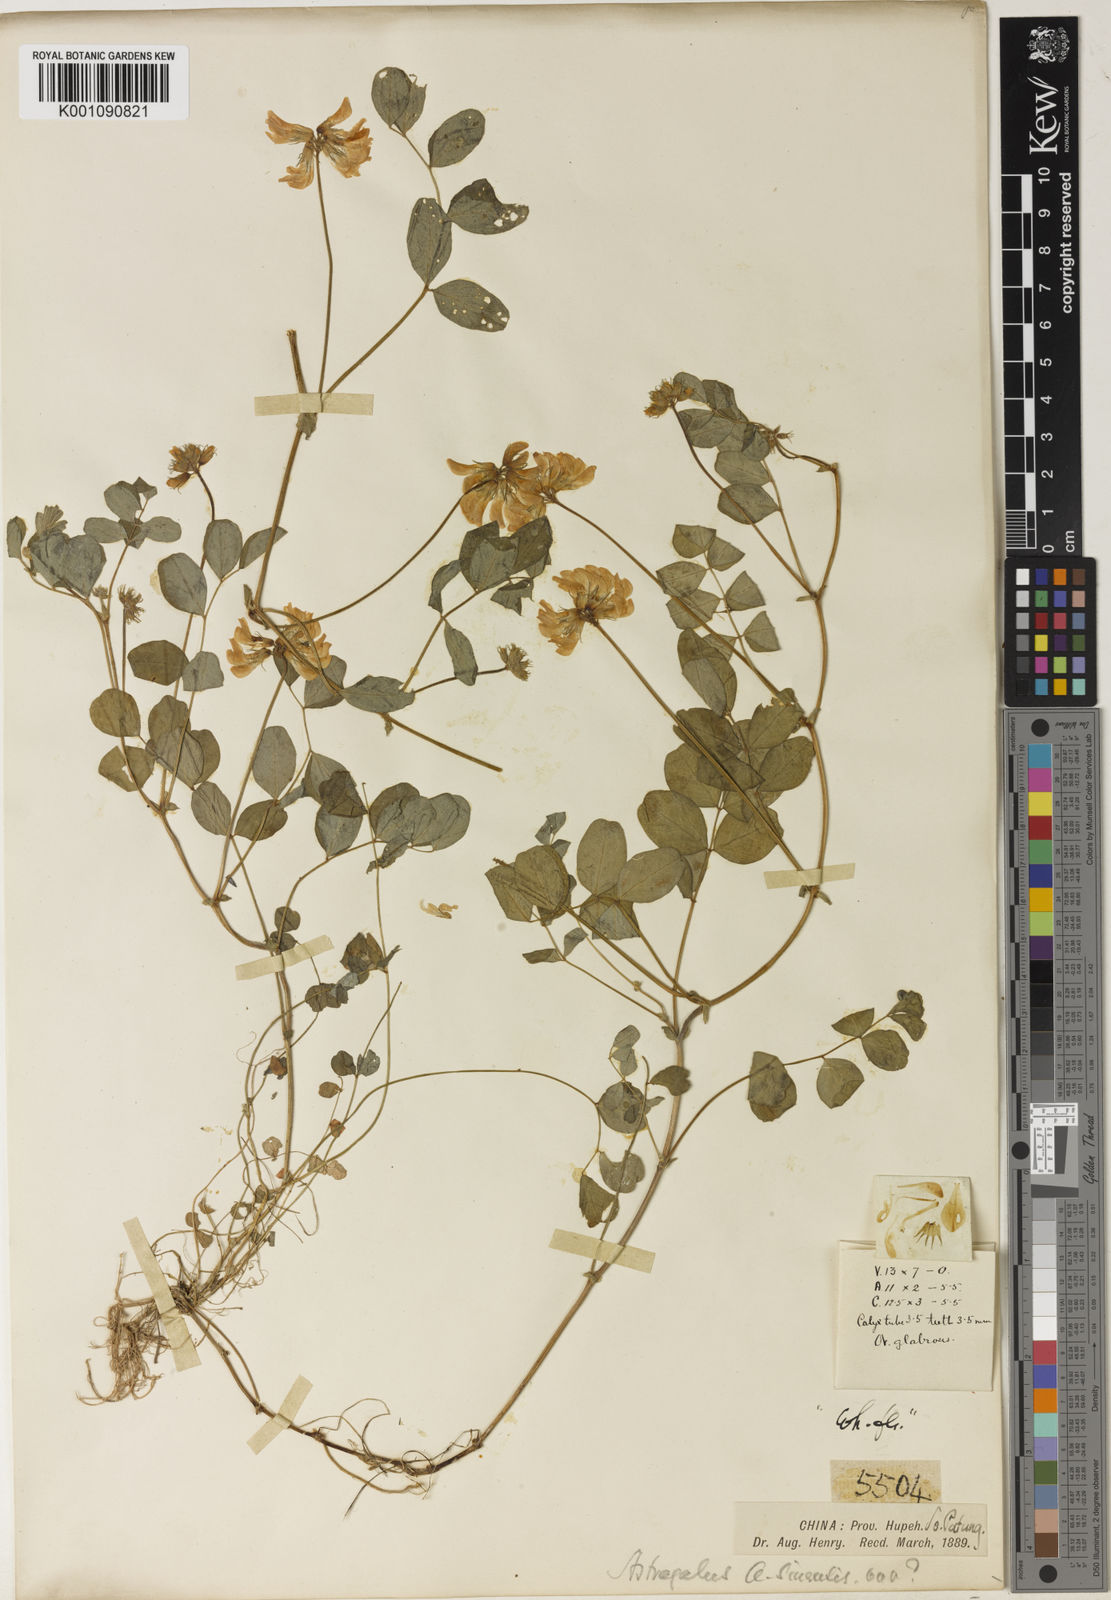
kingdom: Plantae
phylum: Tracheophyta
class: Magnoliopsida
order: Fabales
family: Fabaceae
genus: Astragalus
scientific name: Astragalus sinicus
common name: Chinese milk-vetch
